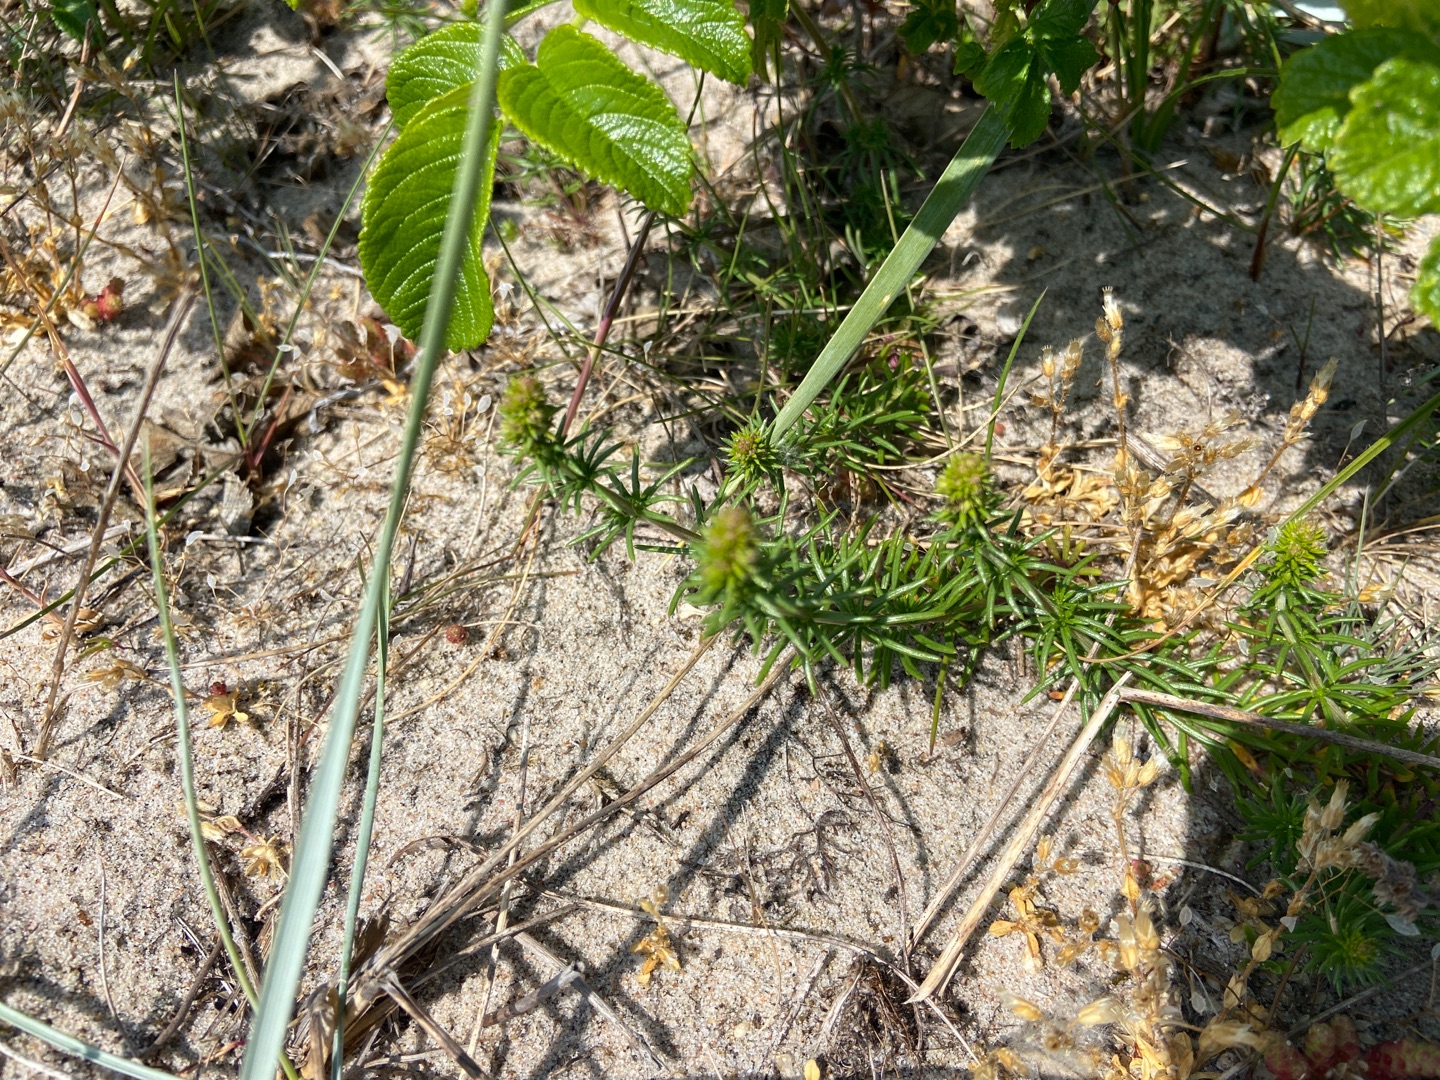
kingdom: Plantae
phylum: Tracheophyta
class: Magnoliopsida
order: Gentianales
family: Rubiaceae
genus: Galium
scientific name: Galium verum
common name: Gul snerre
